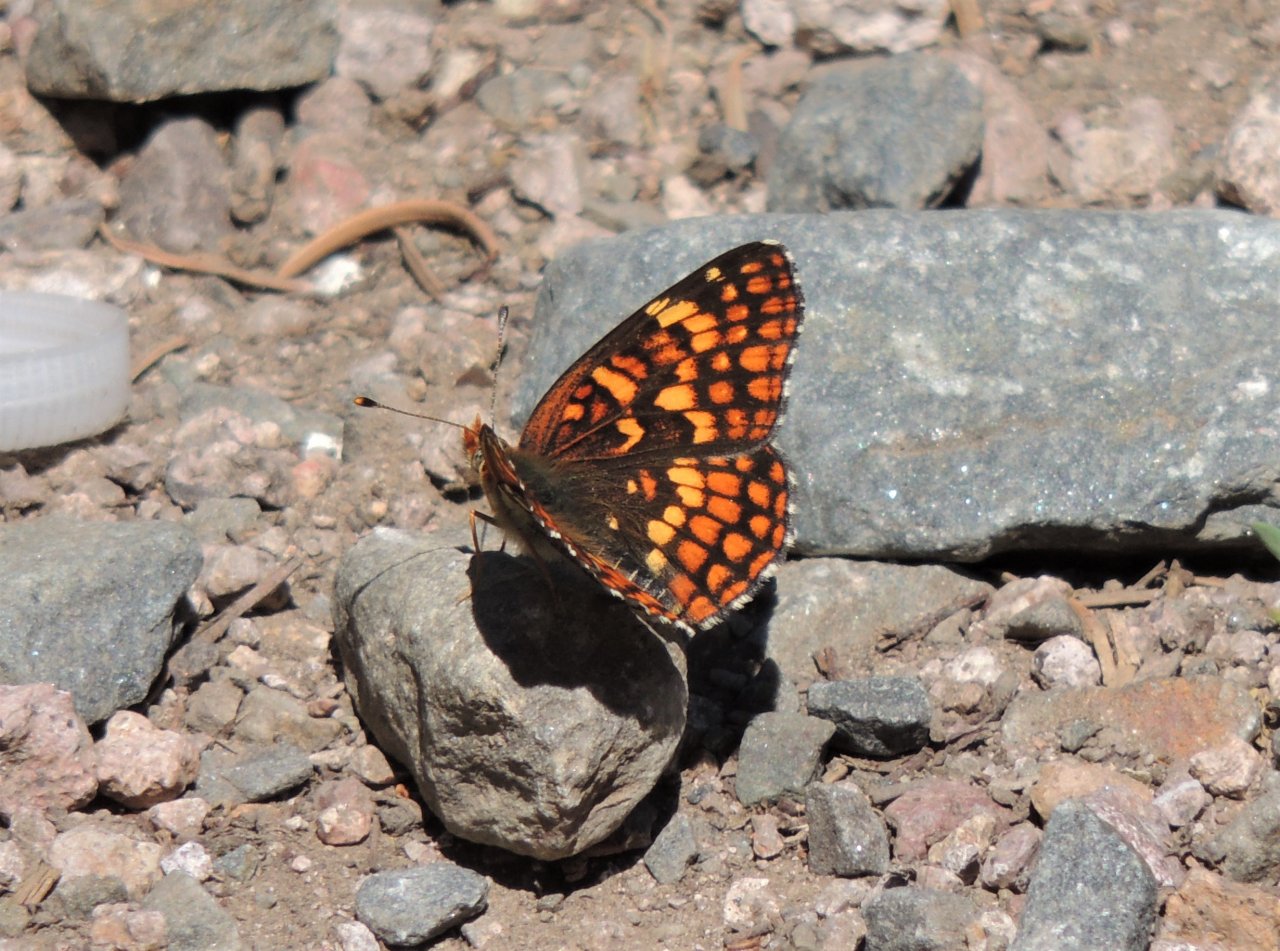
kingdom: Animalia
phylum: Arthropoda
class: Insecta
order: Lepidoptera
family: Nymphalidae
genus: Chlosyne
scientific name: Chlosyne palla
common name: Northern Checkerspot
